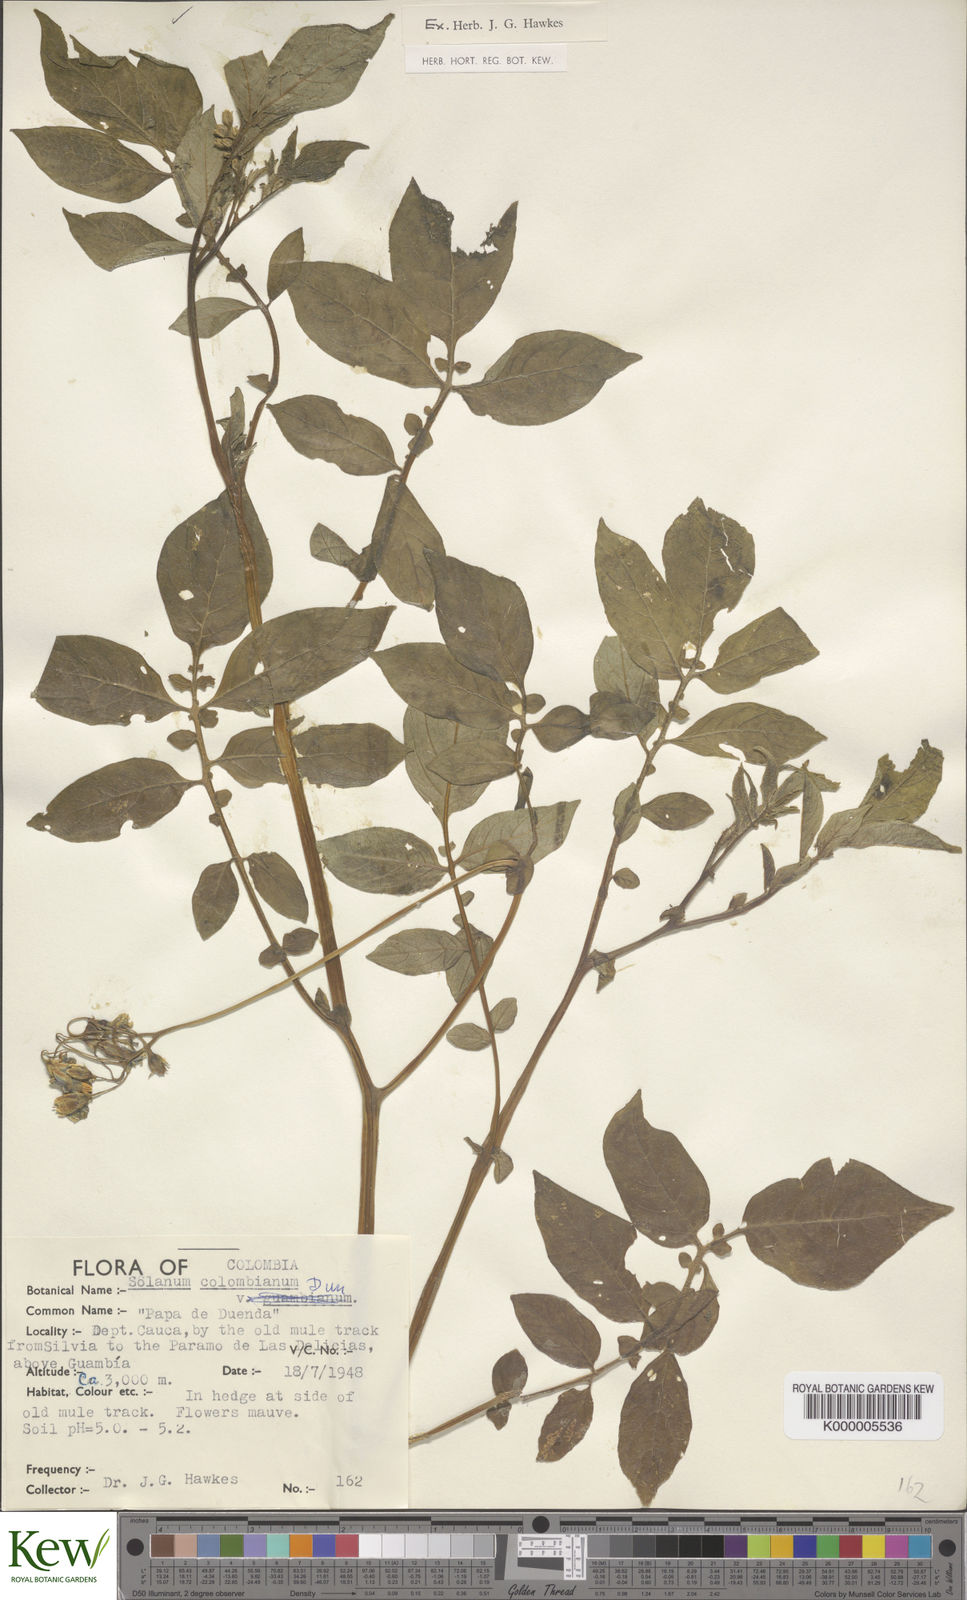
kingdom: Plantae
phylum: Tracheophyta
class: Magnoliopsida
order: Solanales
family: Solanaceae
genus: Solanum
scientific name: Solanum colombianum
